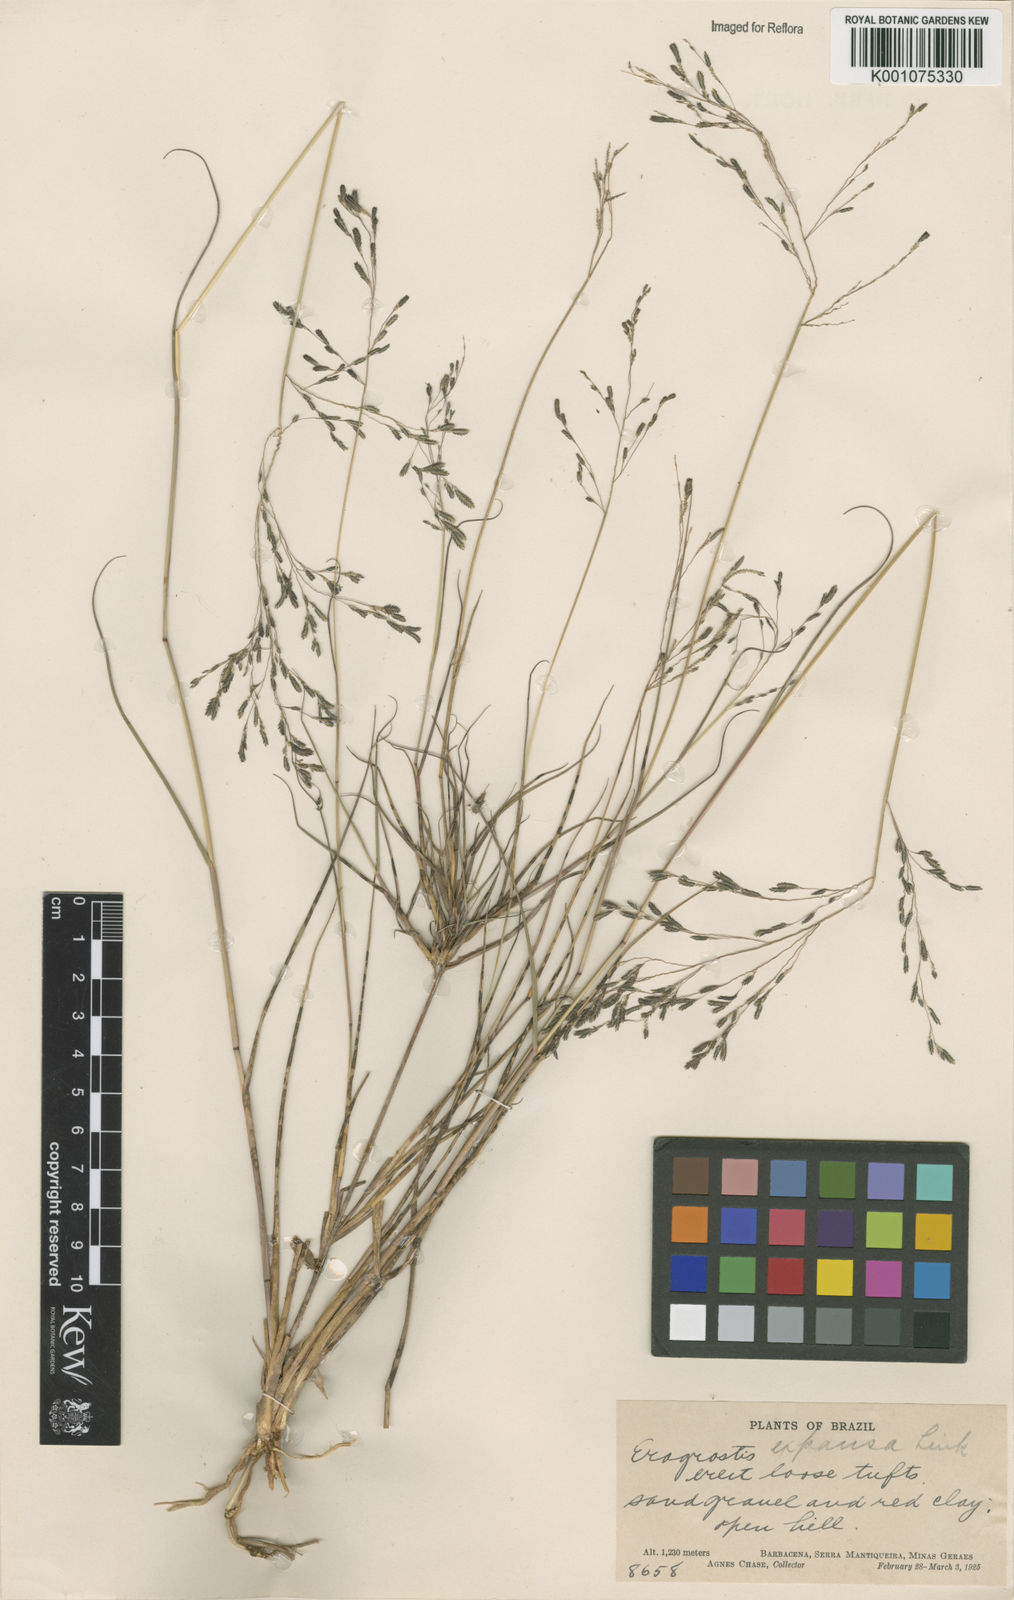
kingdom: Plantae
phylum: Tracheophyta
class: Liliopsida
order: Poales
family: Poaceae
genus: Eragrostis
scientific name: Eragrostis bahiensis
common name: Bahia lovegrass
